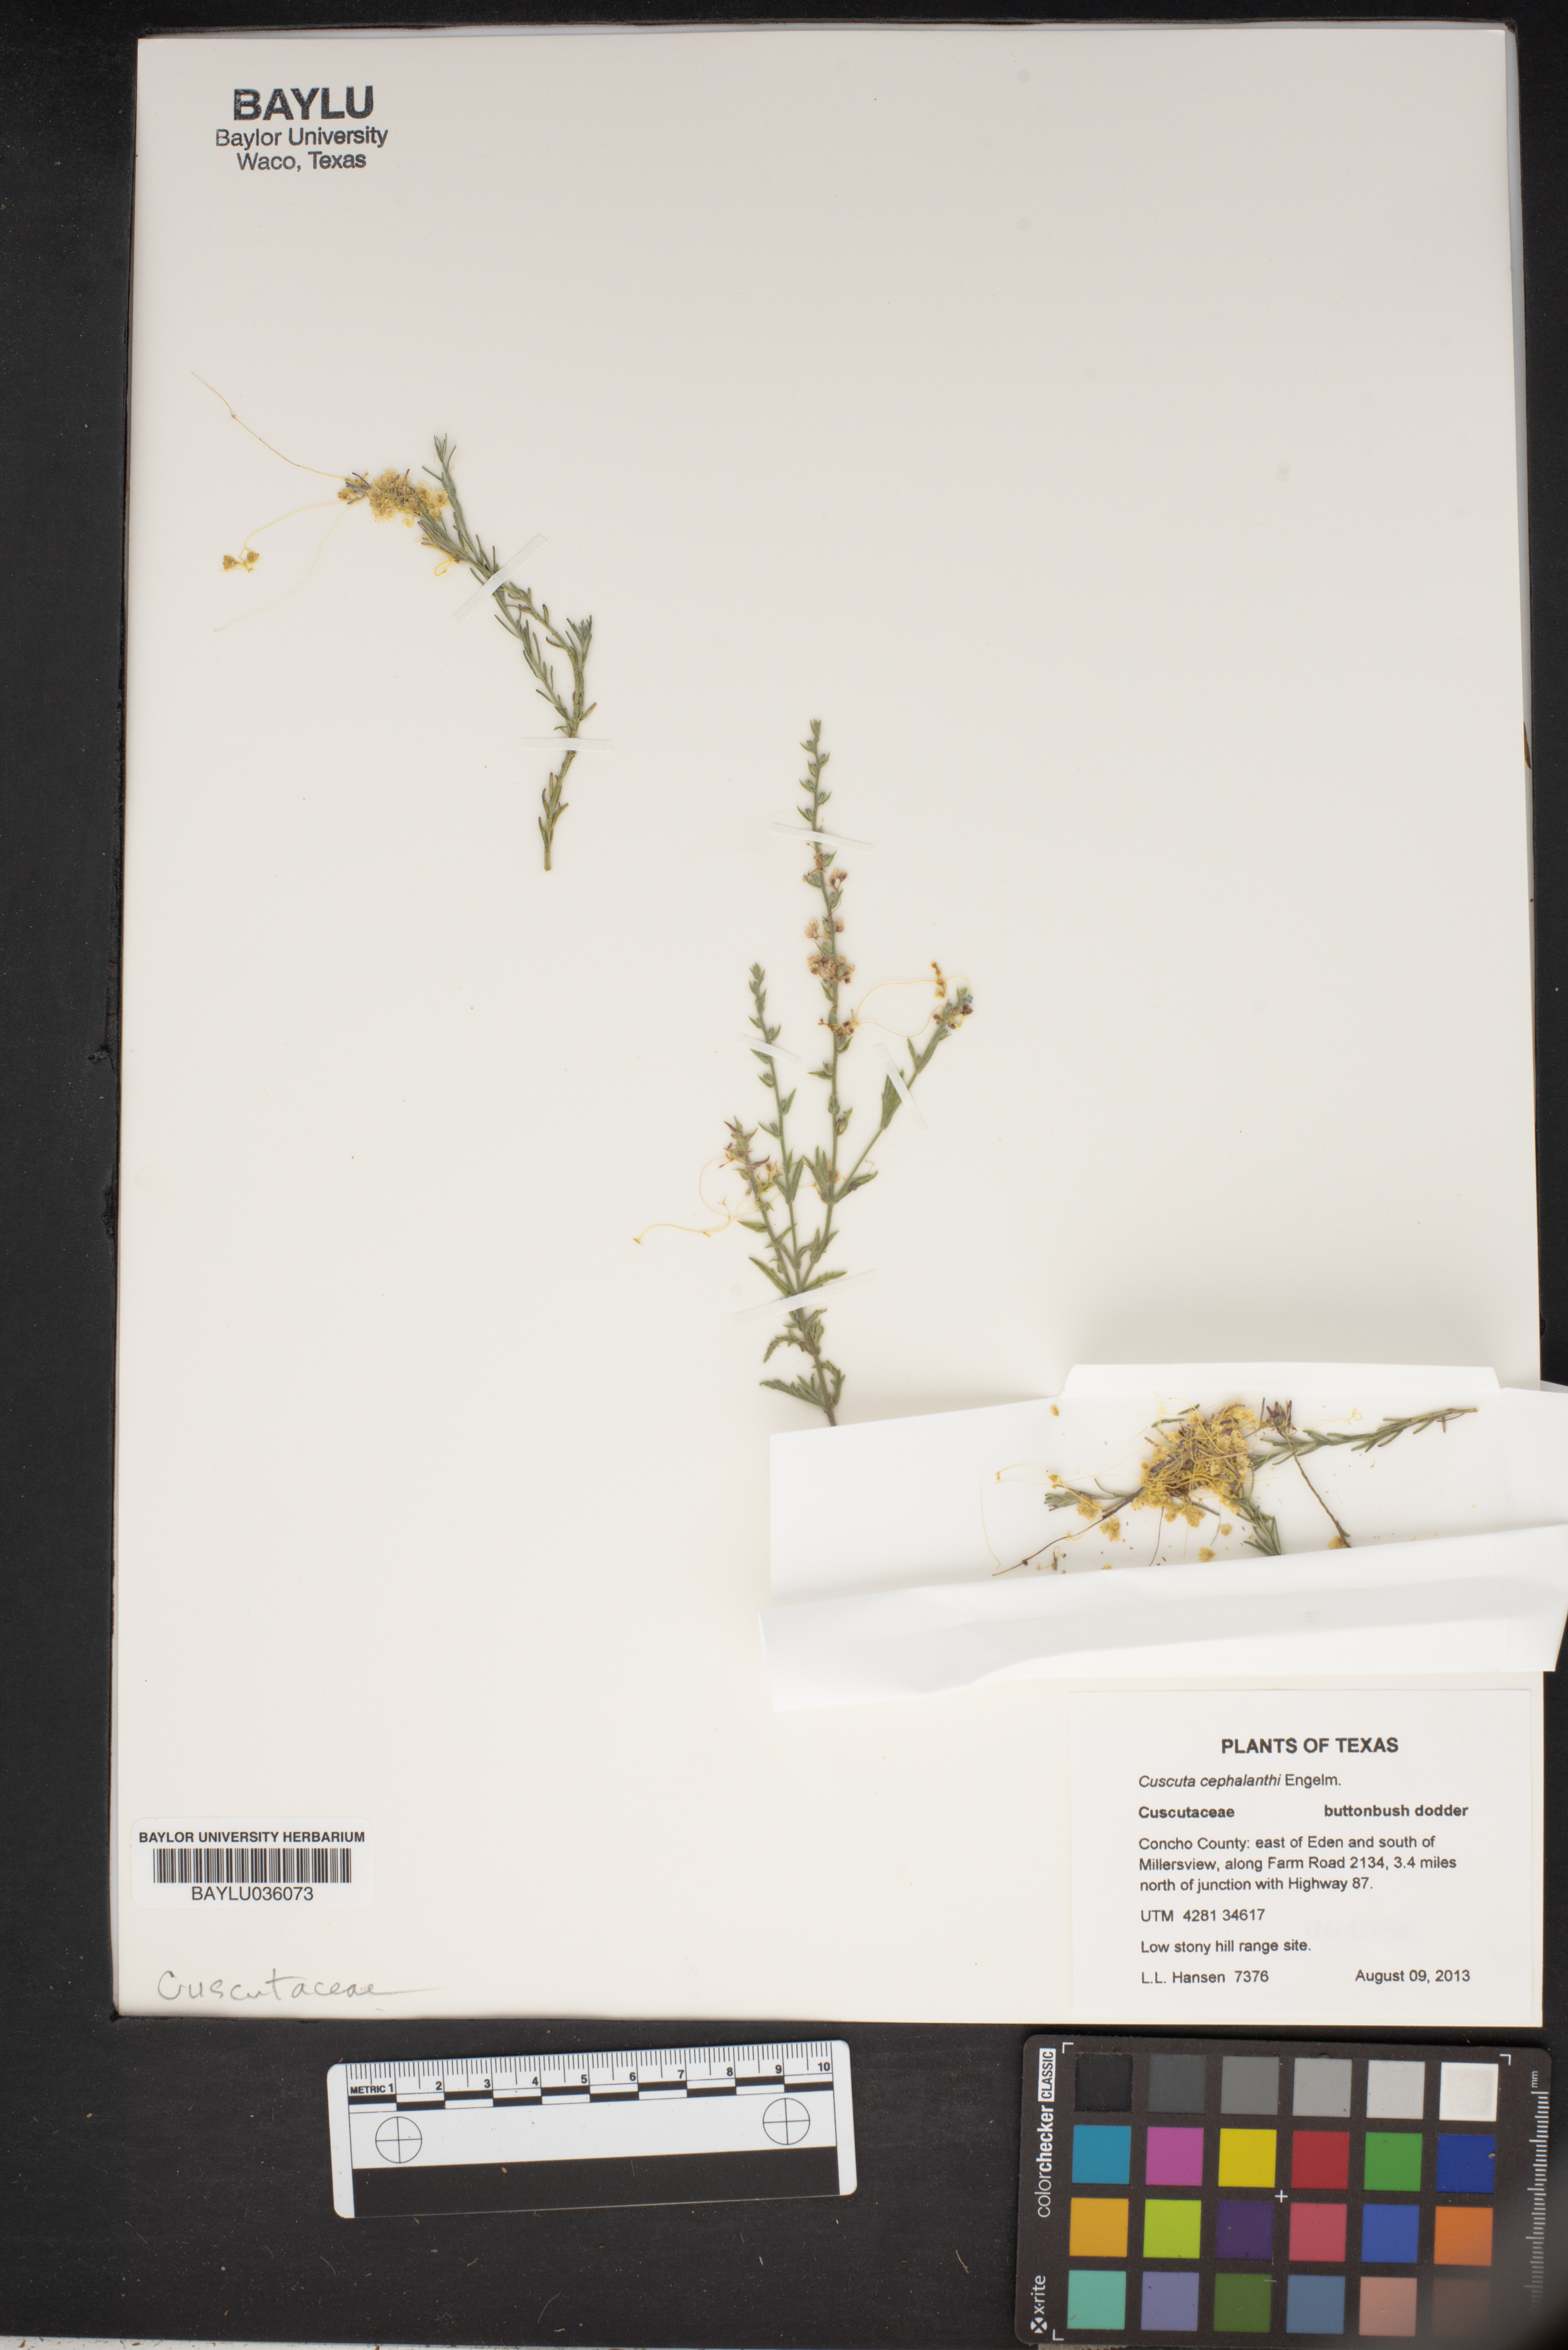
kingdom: Plantae
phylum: Tracheophyta
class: Magnoliopsida
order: Solanales
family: Convolvulaceae
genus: Cuscuta
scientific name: Cuscuta cephalanthi
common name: Button dodder
